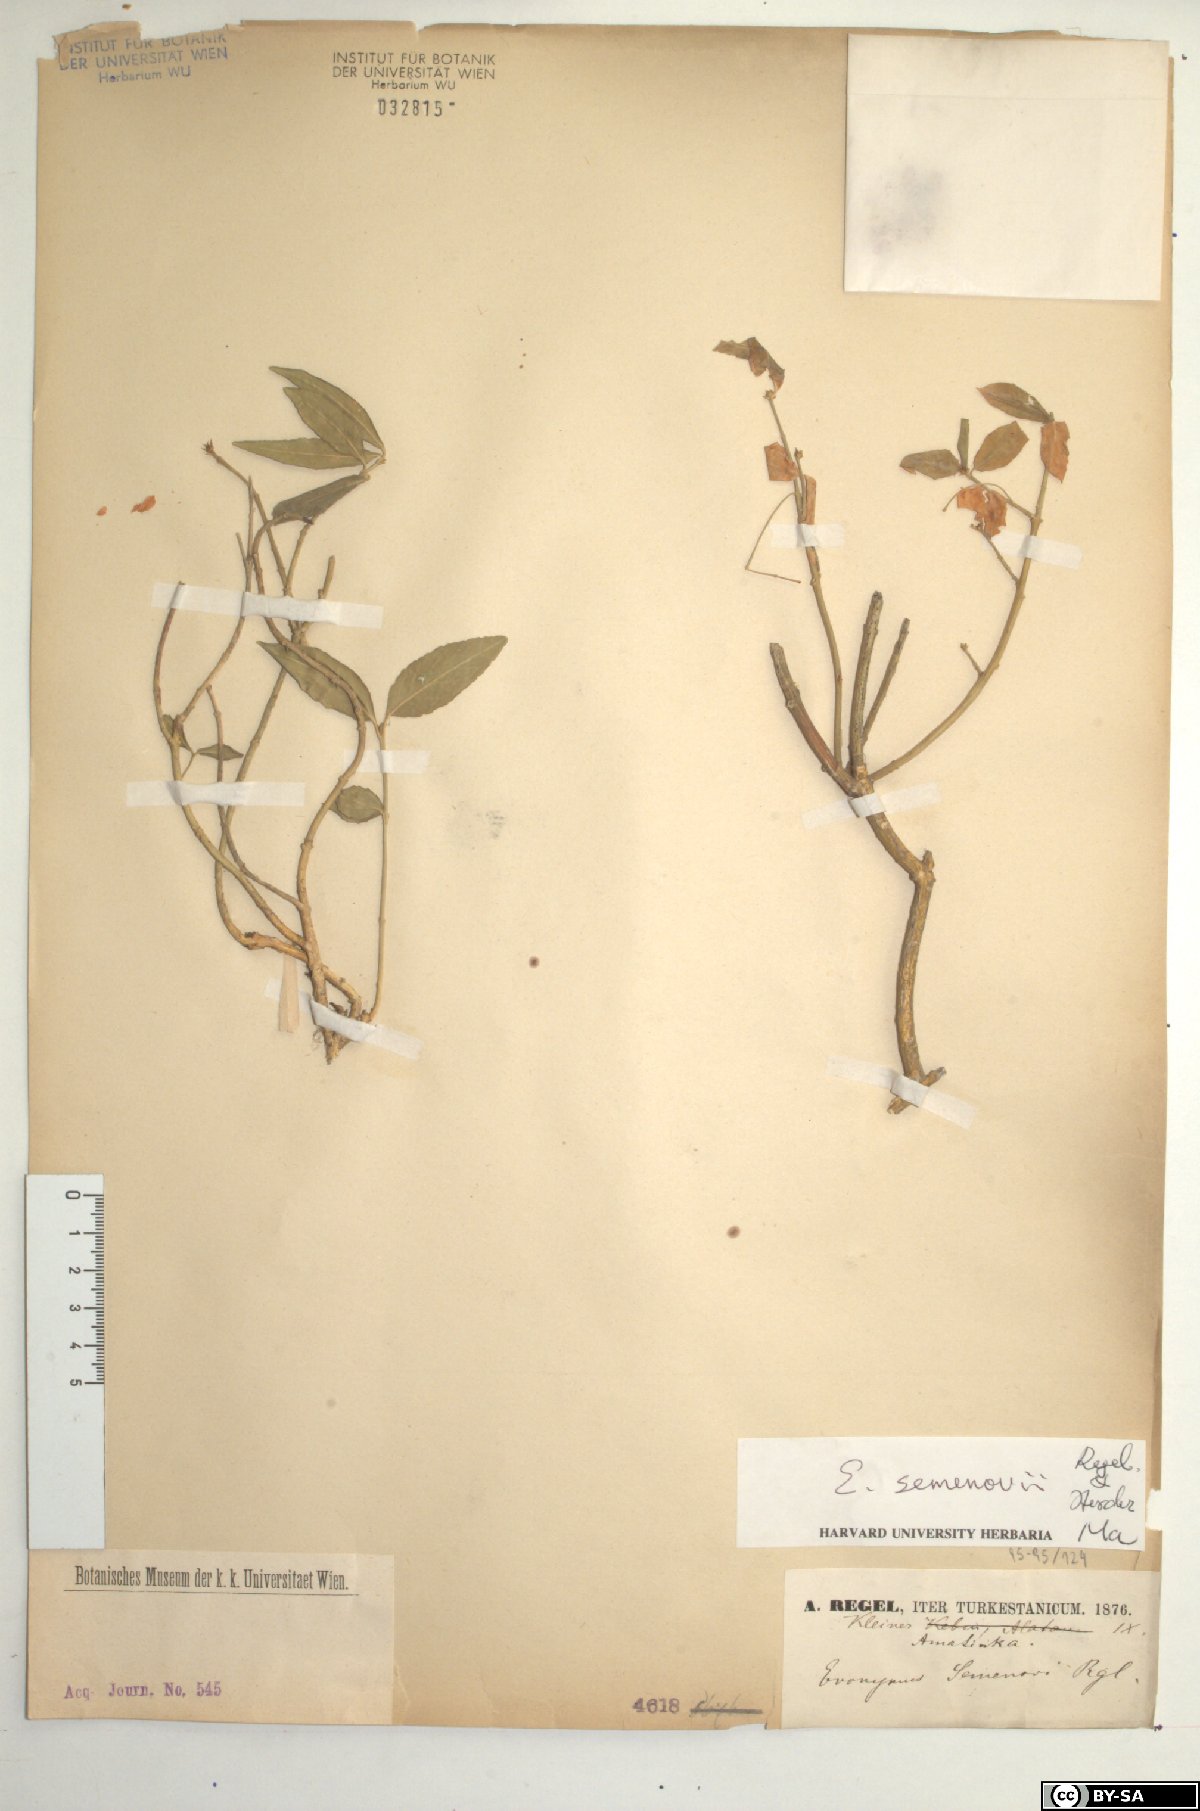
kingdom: Plantae
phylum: Tracheophyta
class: Magnoliopsida
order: Celastrales
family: Celastraceae
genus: Euonymus
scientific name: Euonymus semenovii
